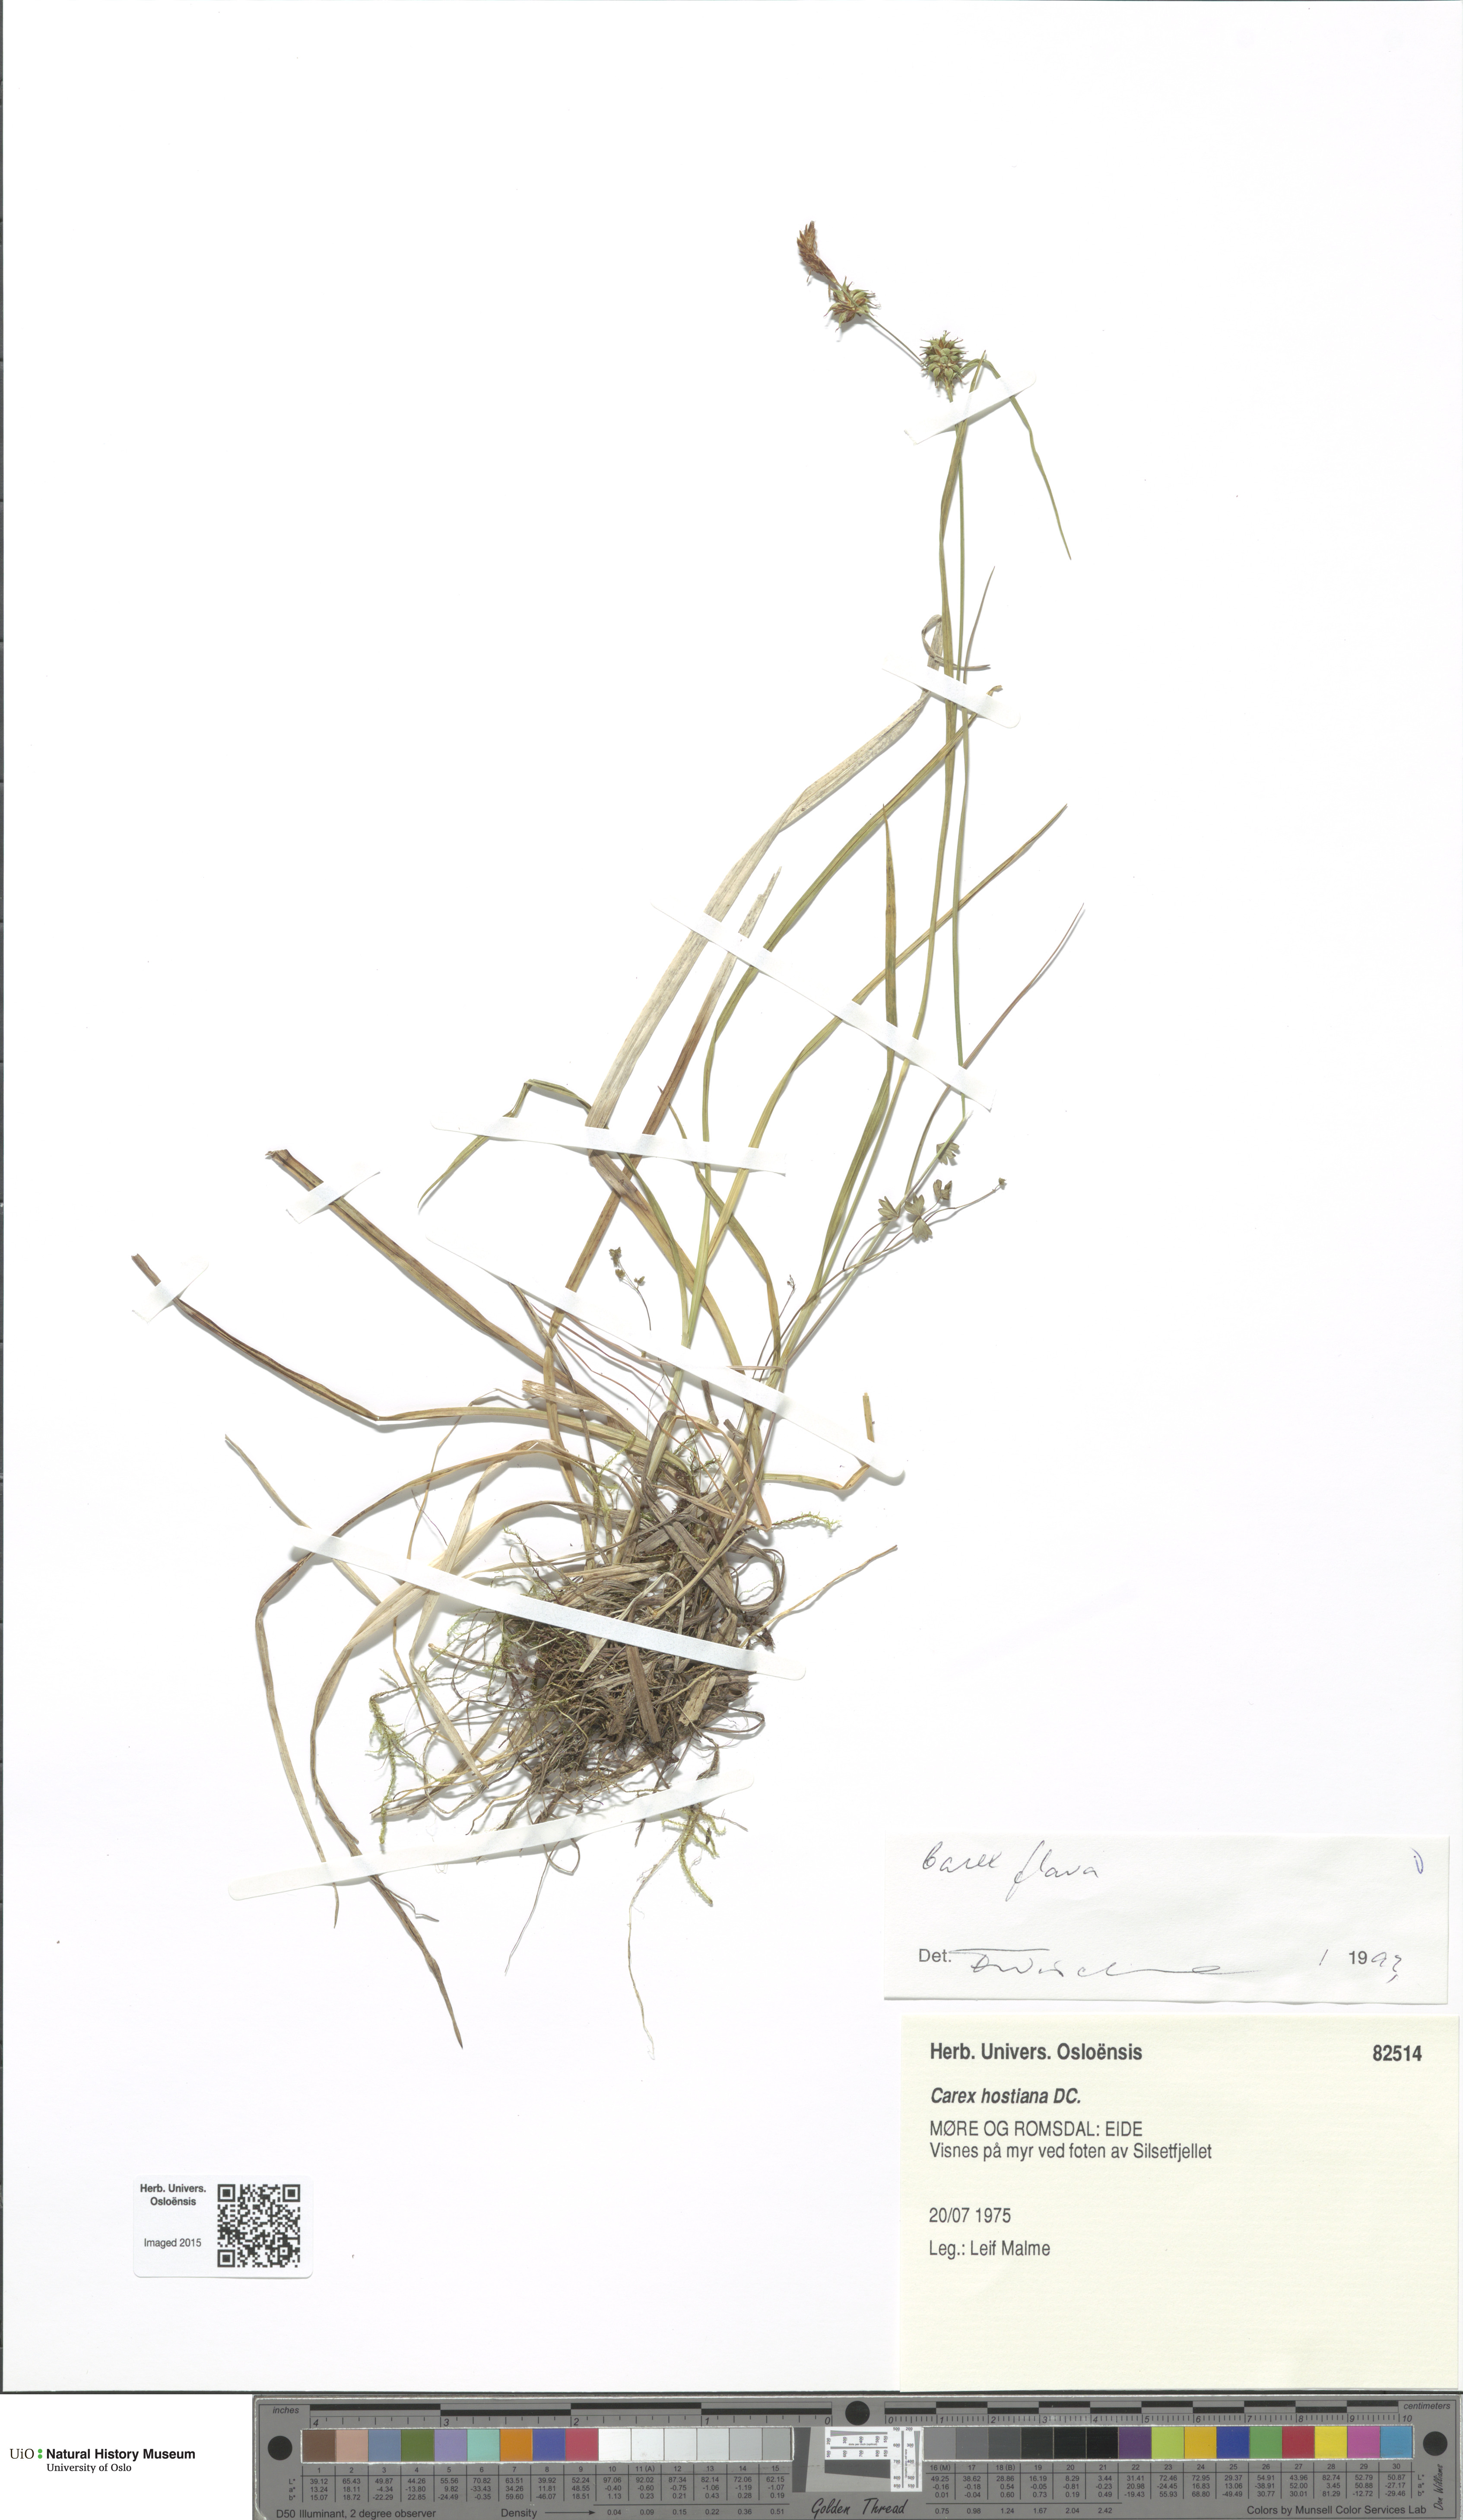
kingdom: Plantae
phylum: Tracheophyta
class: Liliopsida
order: Poales
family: Cyperaceae
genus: Carex
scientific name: Carex flava
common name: Large yellow-sedge
